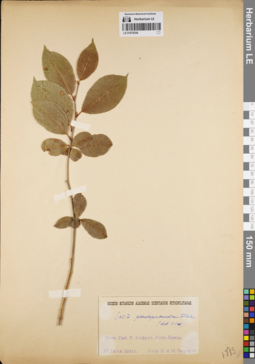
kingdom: Plantae
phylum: Tracheophyta
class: Magnoliopsida
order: Malpighiales
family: Salicaceae
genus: Salix
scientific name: Salix pseudopentandra
